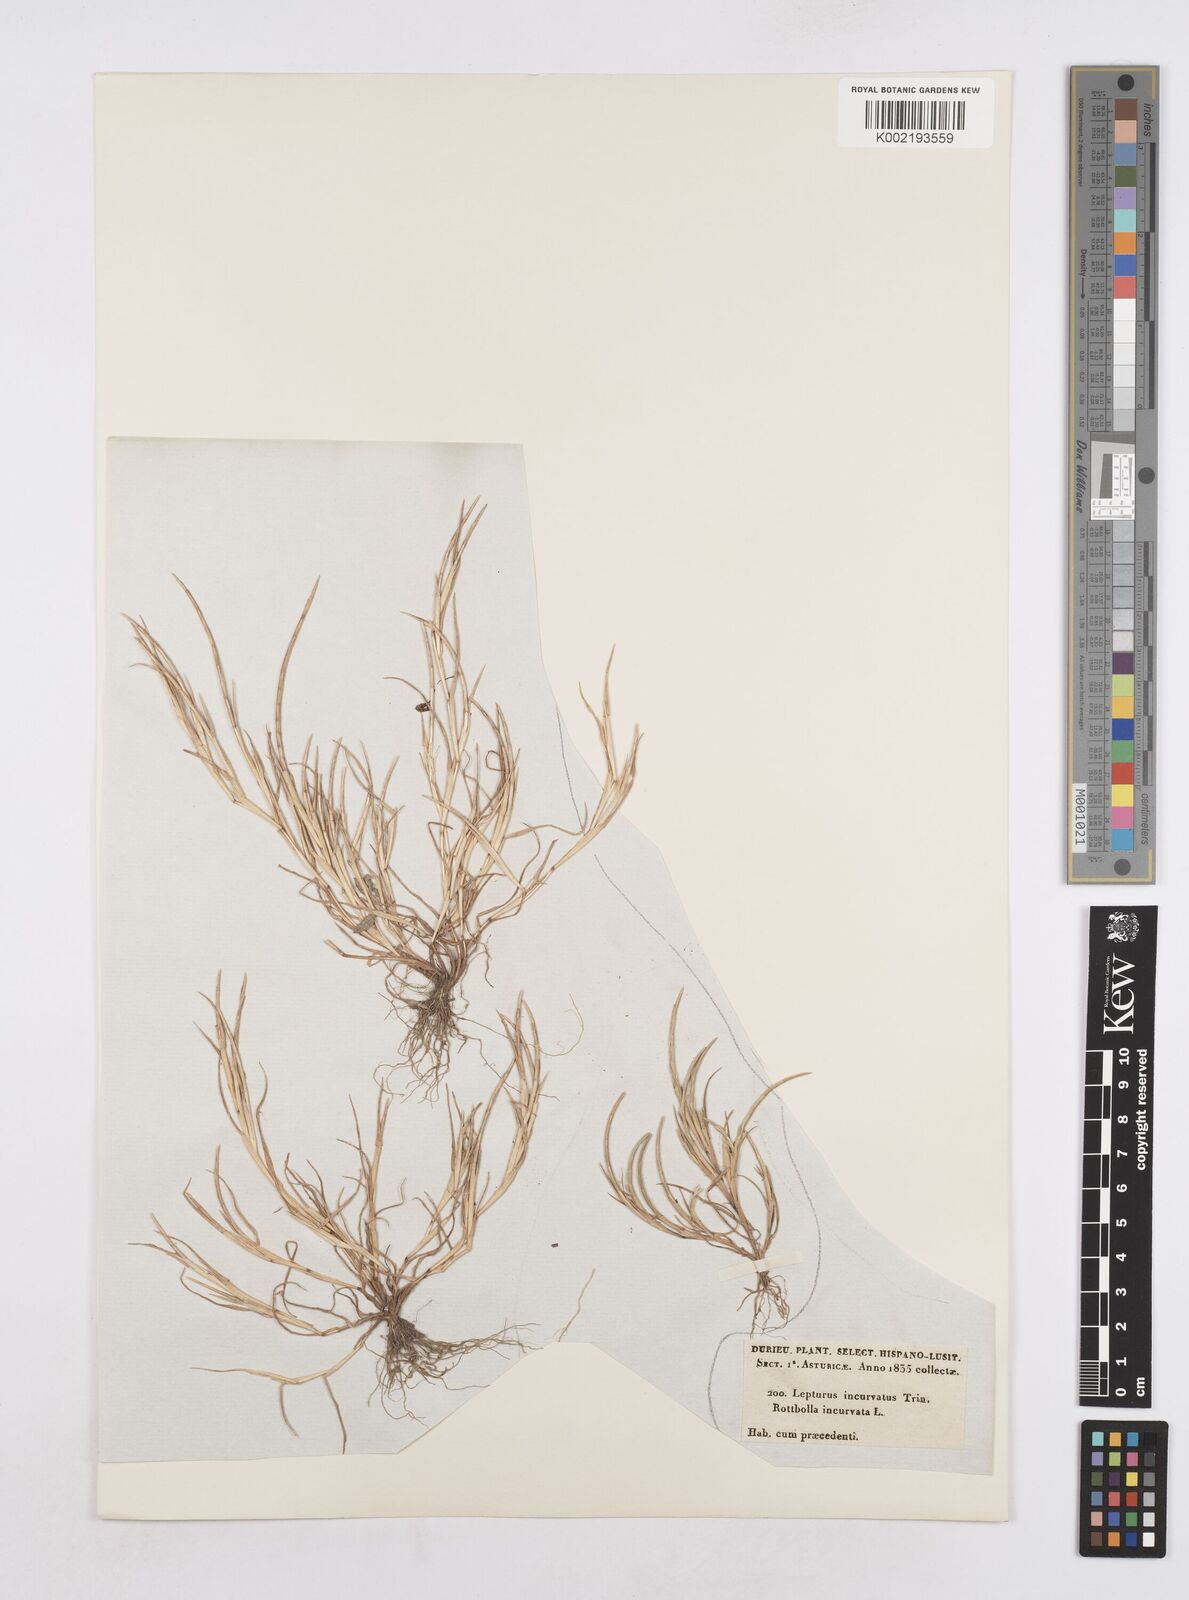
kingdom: Plantae
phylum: Tracheophyta
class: Liliopsida
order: Poales
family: Poaceae
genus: Parapholis
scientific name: Parapholis incurva
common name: Curved sicklegrass
